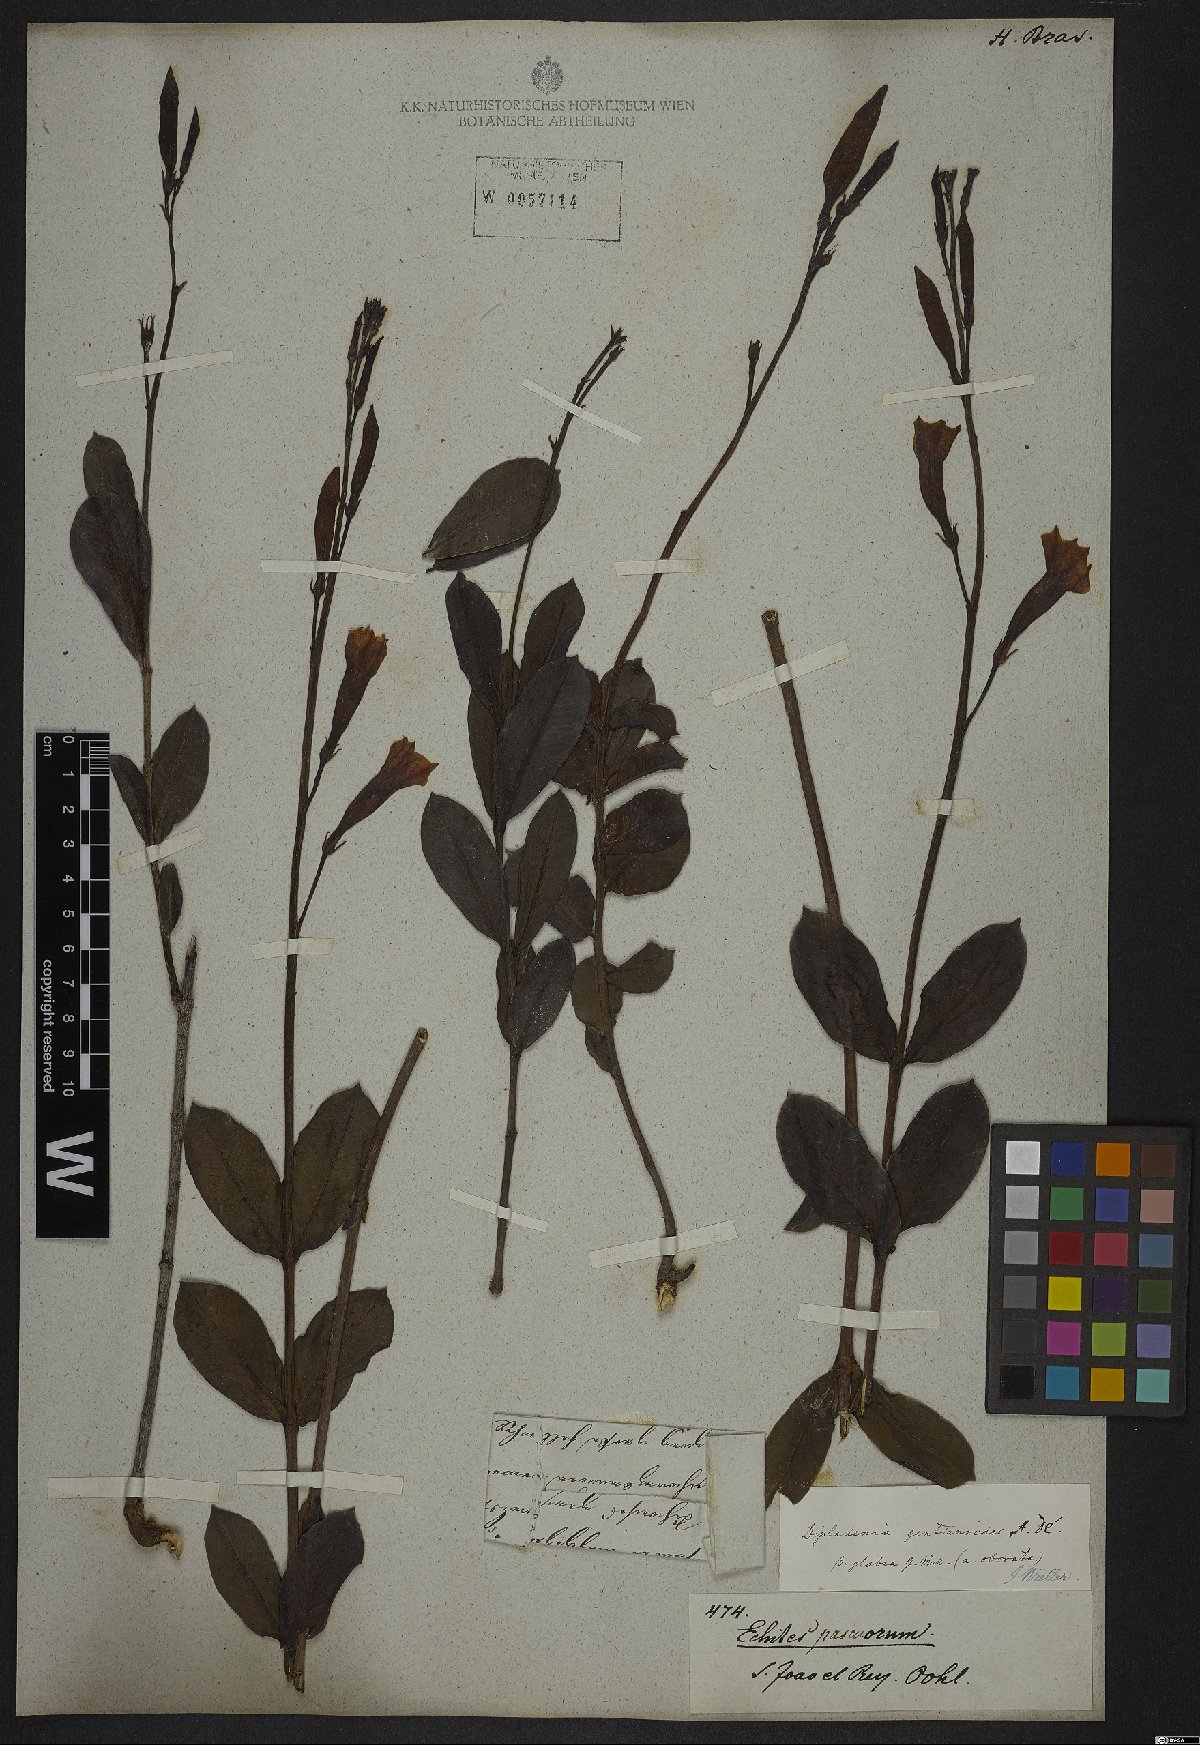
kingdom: Plantae
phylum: Tracheophyta
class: Magnoliopsida
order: Gentianales
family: Apocynaceae
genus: Mandevilla
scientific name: Mandevilla pohliana
